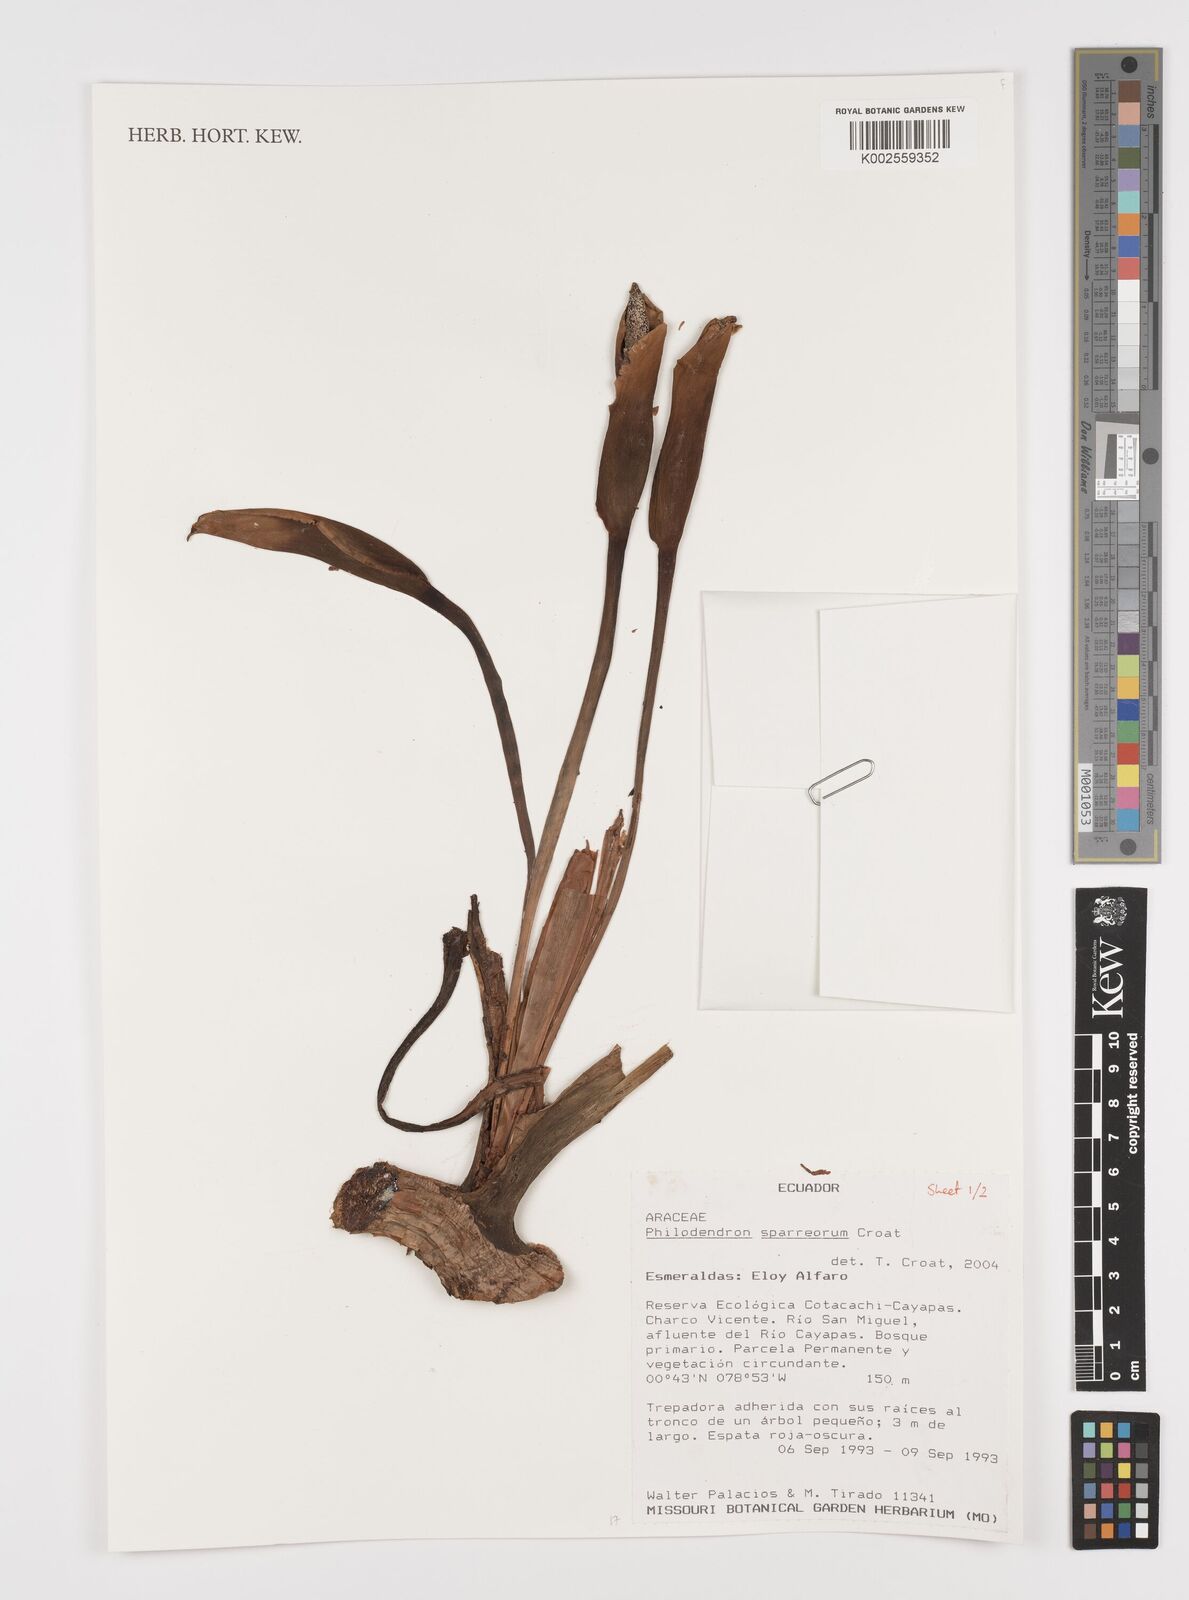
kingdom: Plantae
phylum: Tracheophyta
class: Liliopsida
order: Alismatales
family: Araceae
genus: Philodendron
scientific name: Philodendron sparreorum
